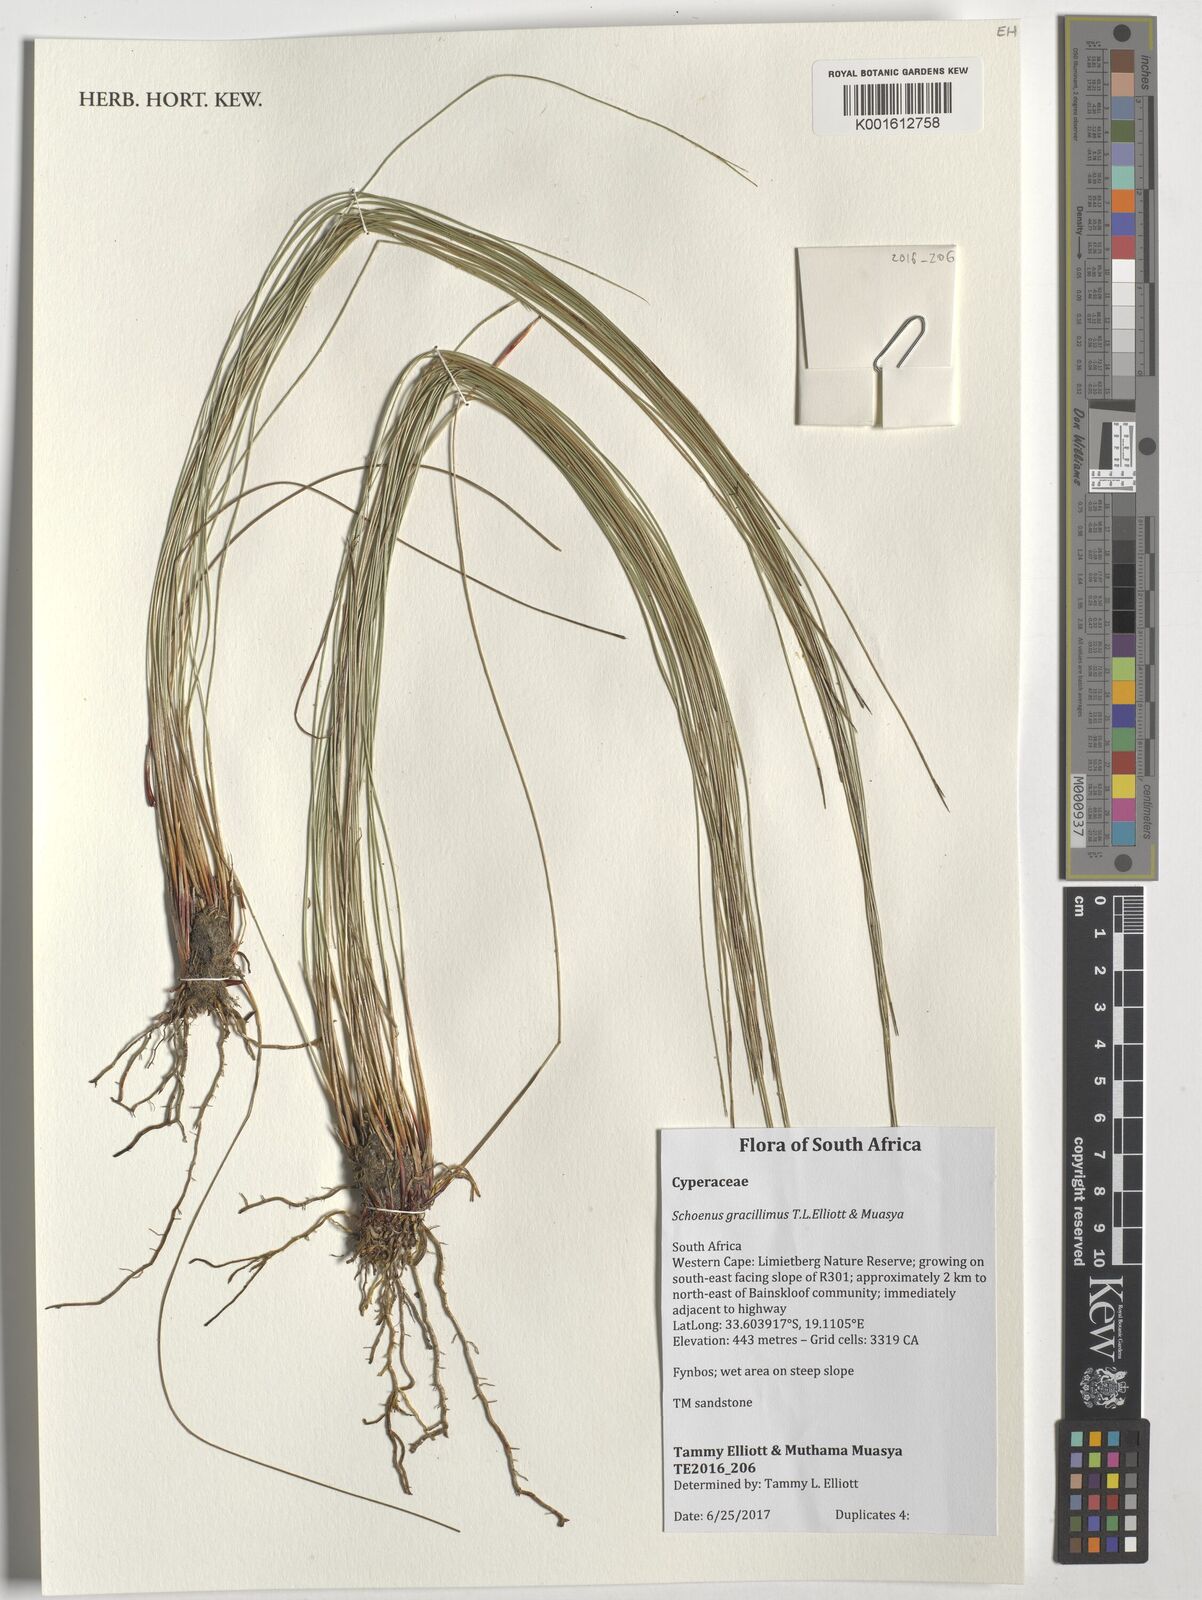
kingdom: Plantae
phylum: Tracheophyta
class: Liliopsida
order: Poales
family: Cyperaceae
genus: Schoenus
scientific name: Schoenus gracillimus
